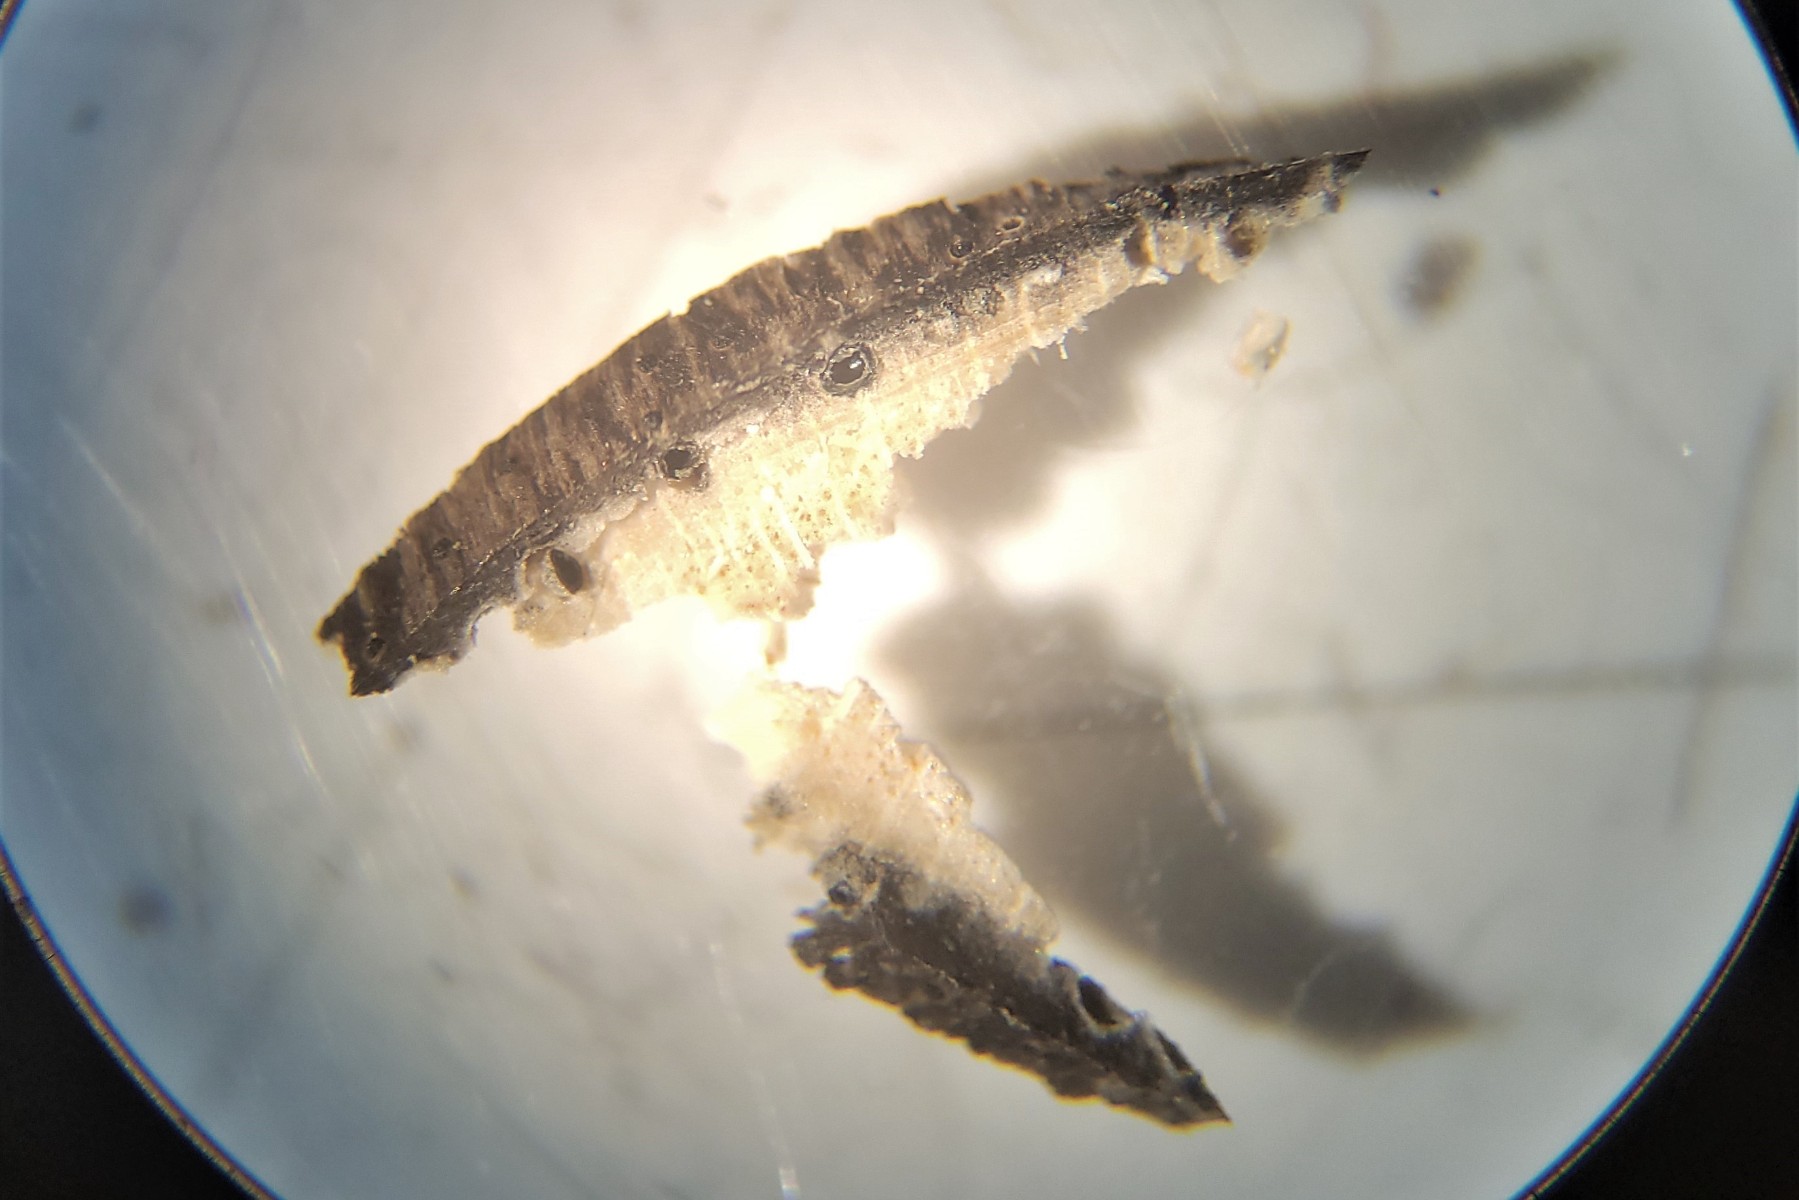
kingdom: Fungi
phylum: Ascomycota
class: Sordariomycetes
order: Xylariales
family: Diatrypaceae
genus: Eutypa
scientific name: Eutypa maura
